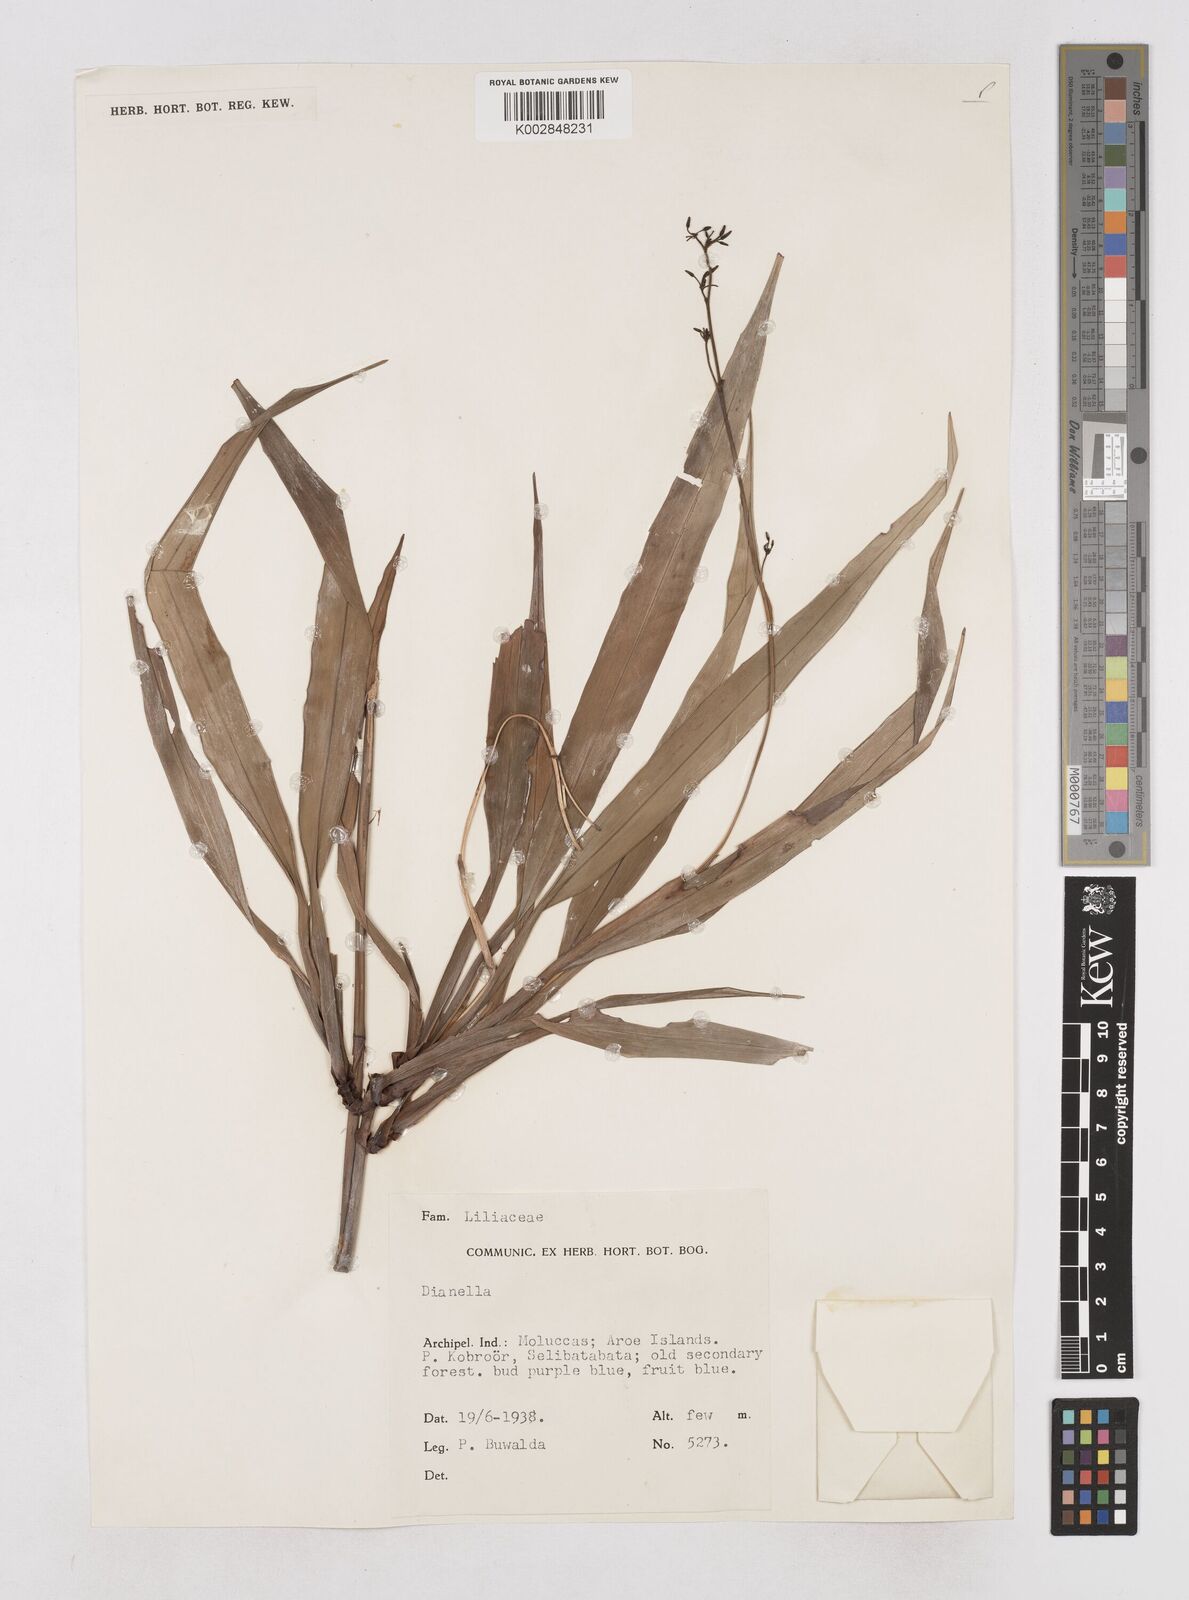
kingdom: Plantae
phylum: Tracheophyta
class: Liliopsida
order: Asparagales
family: Asphodelaceae
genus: Dianella
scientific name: Dianella ensifolia
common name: New zealand lilyplant
